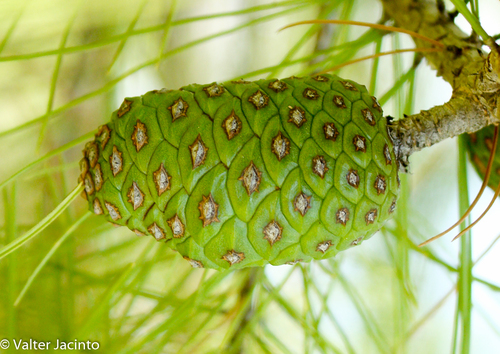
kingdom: Plantae
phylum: Tracheophyta
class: Pinopsida
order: Pinales
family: Pinaceae
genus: Pinus
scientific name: Pinus halepensis
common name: Aleppo pine
